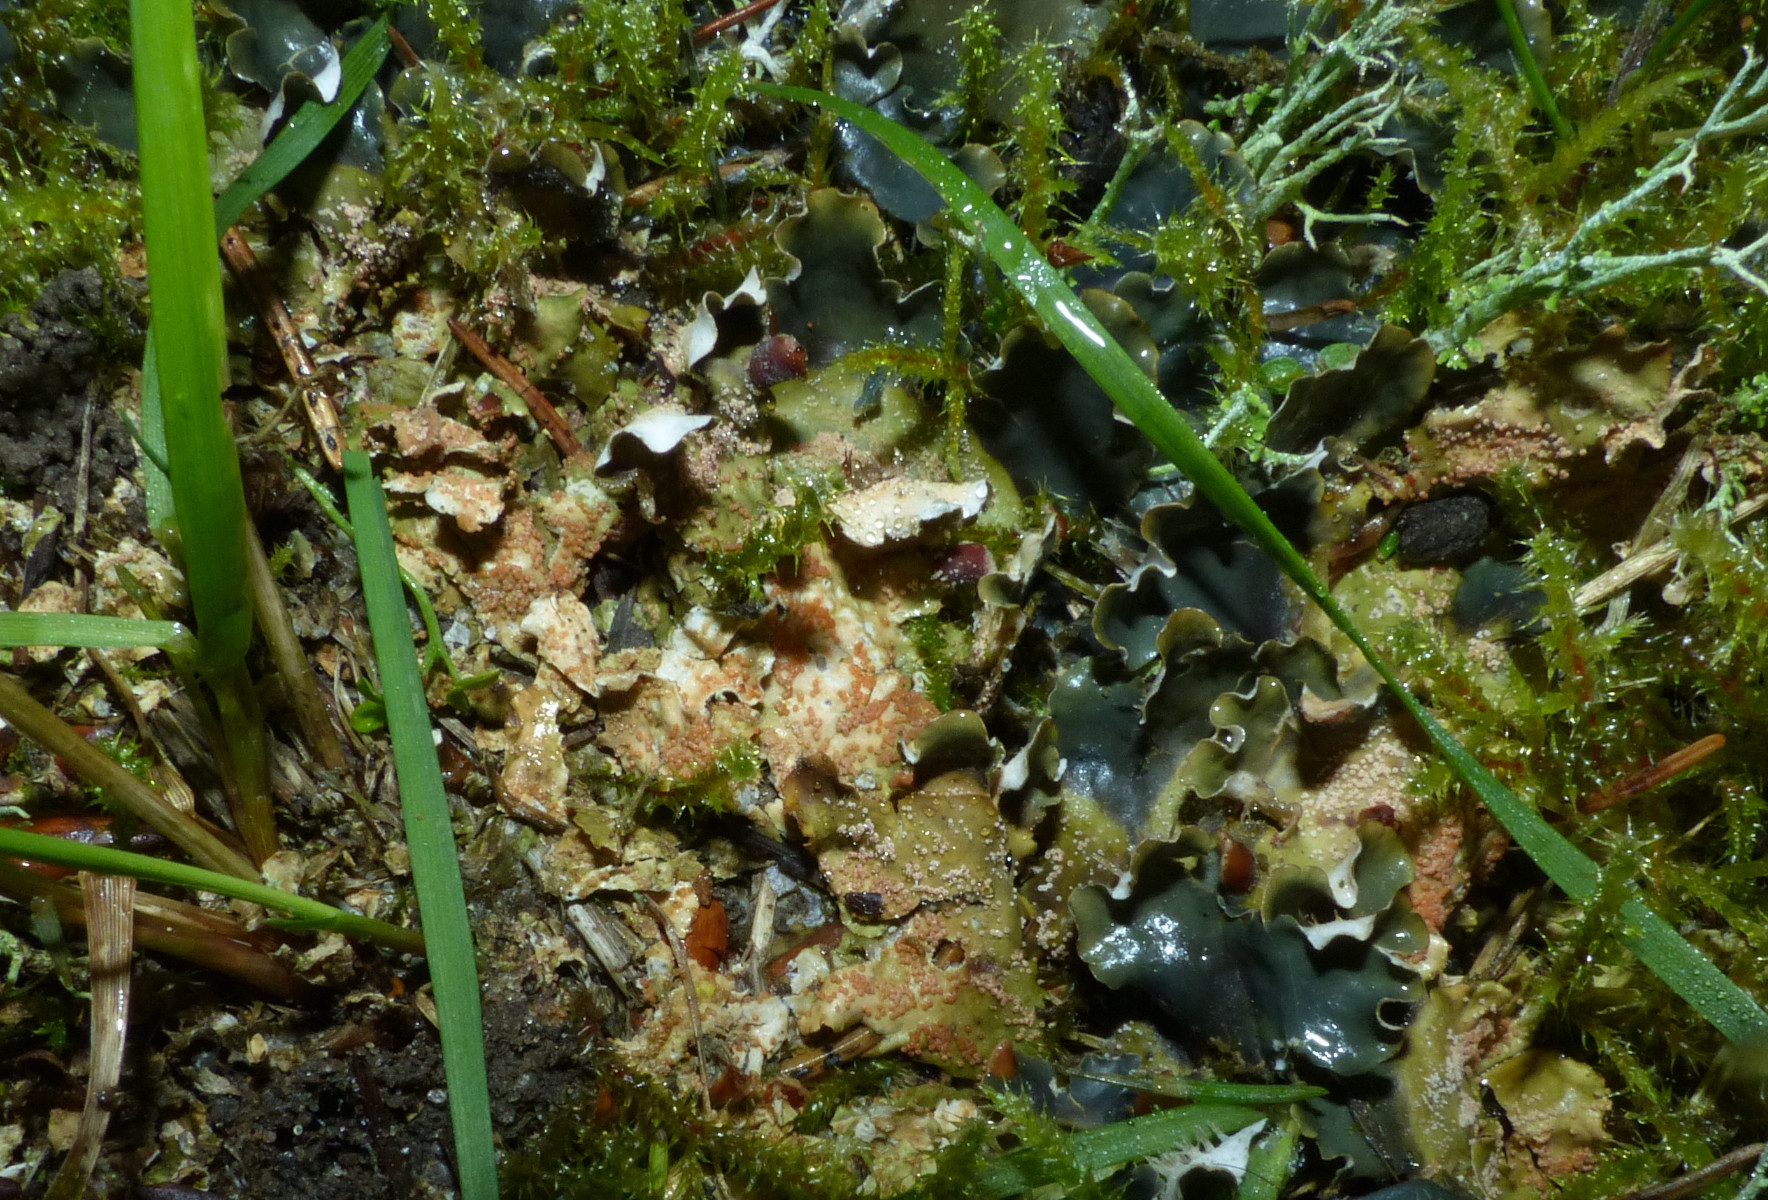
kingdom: Fungi
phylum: Ascomycota
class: Sordariomycetes
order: Hypocreales
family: Bionectriaceae
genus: Nectriopsis
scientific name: Nectriopsis lecanodes
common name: skjoldlav-gyldenkerne
